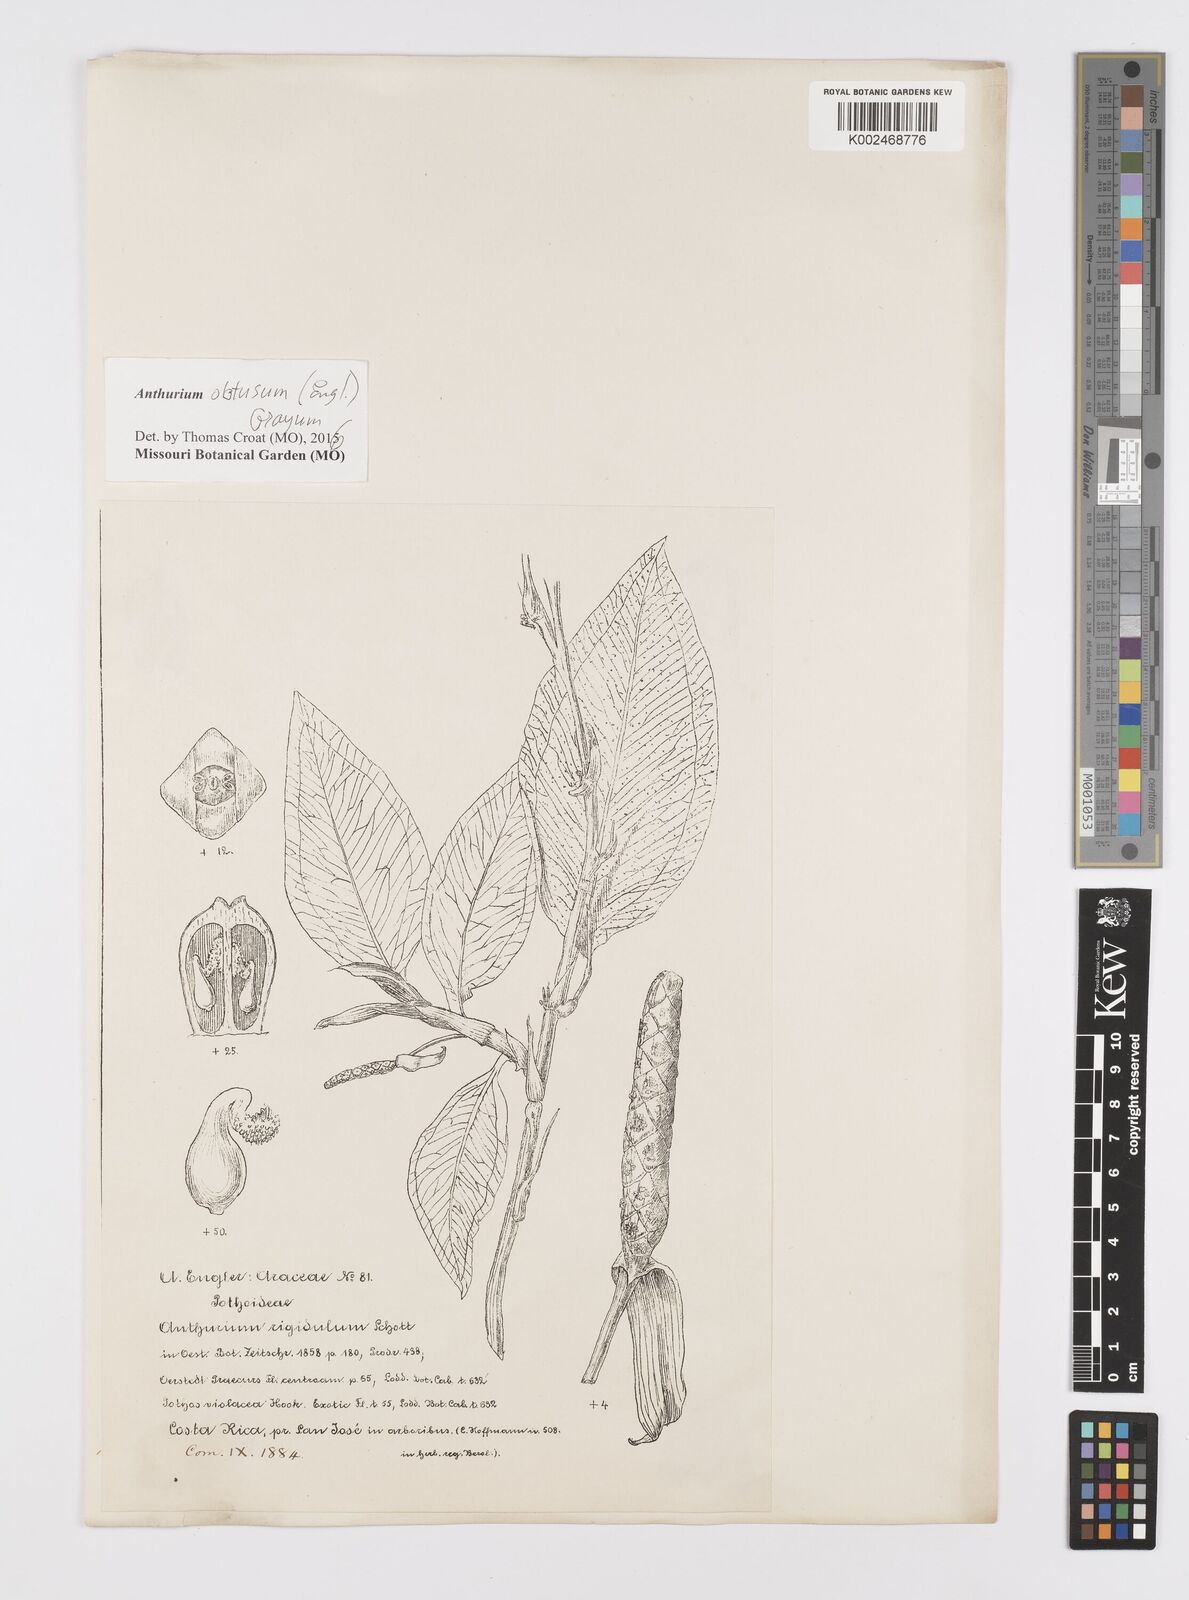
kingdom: Plantae
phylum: Tracheophyta
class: Liliopsida
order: Alismatales
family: Araceae
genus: Anthurium
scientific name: Anthurium obtusum
